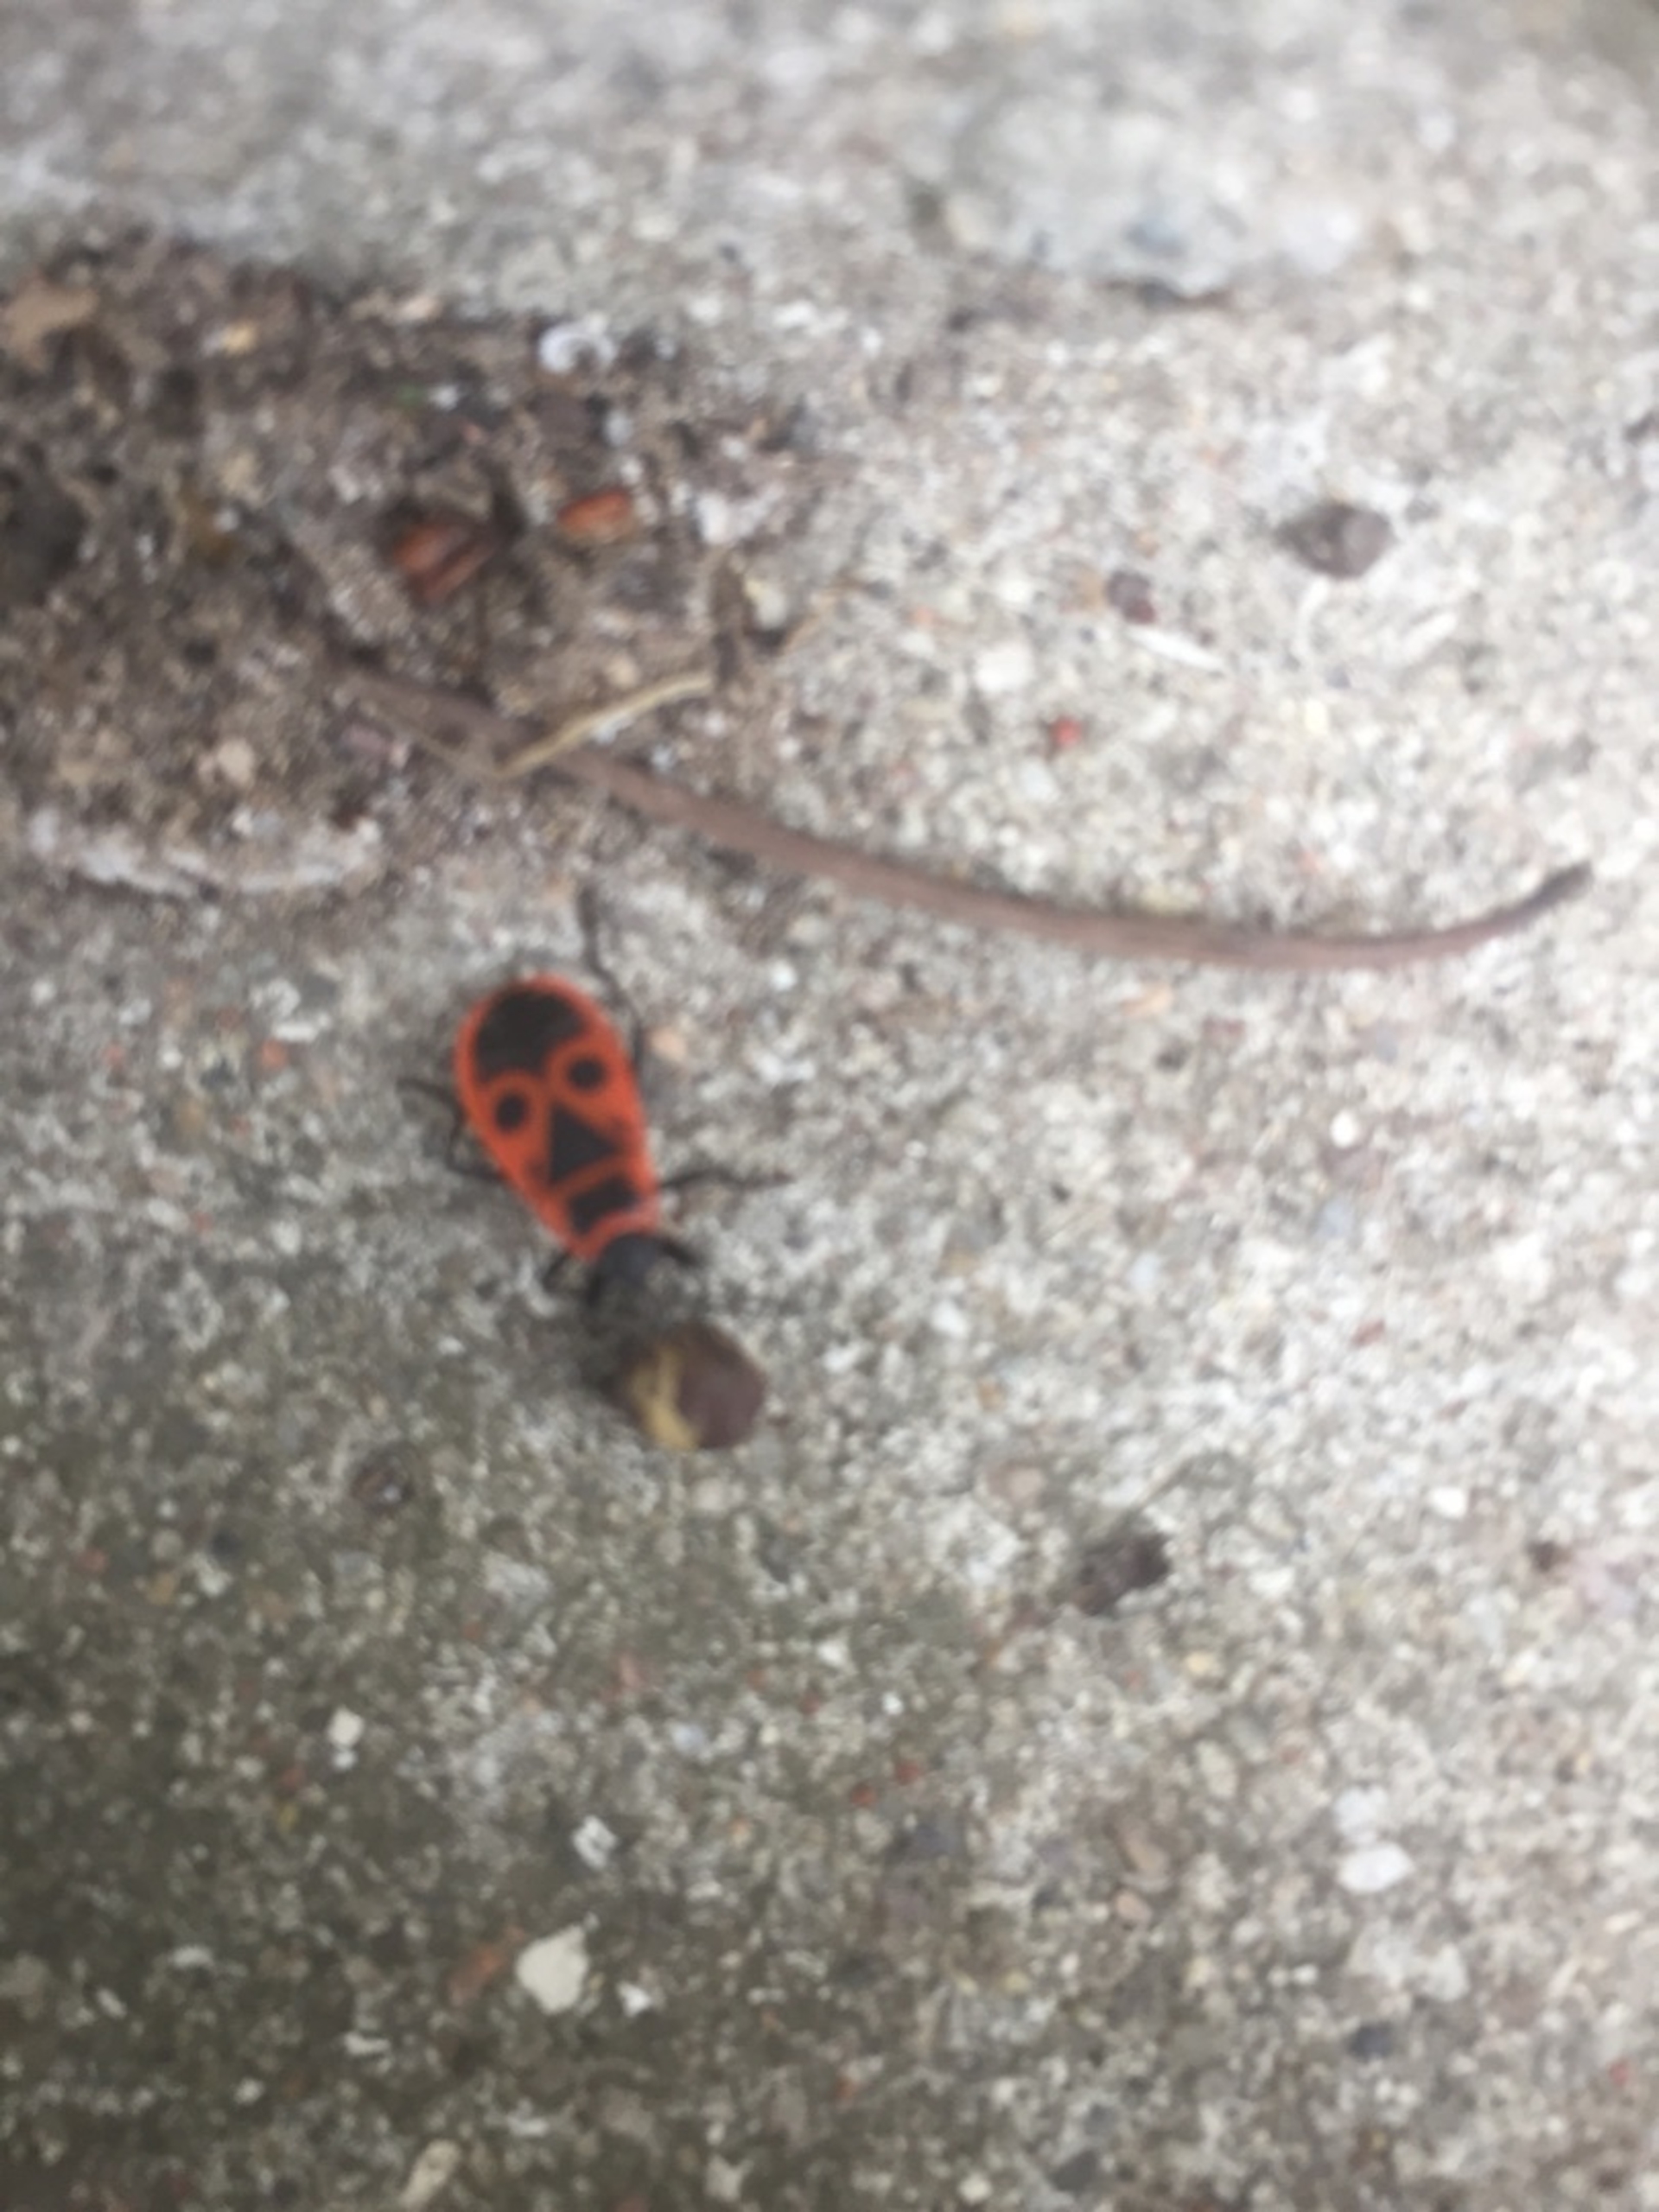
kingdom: Animalia
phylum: Arthropoda
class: Insecta
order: Hemiptera
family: Pyrrhocoridae
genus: Pyrrhocoris
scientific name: Pyrrhocoris apterus
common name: Ildtæge
